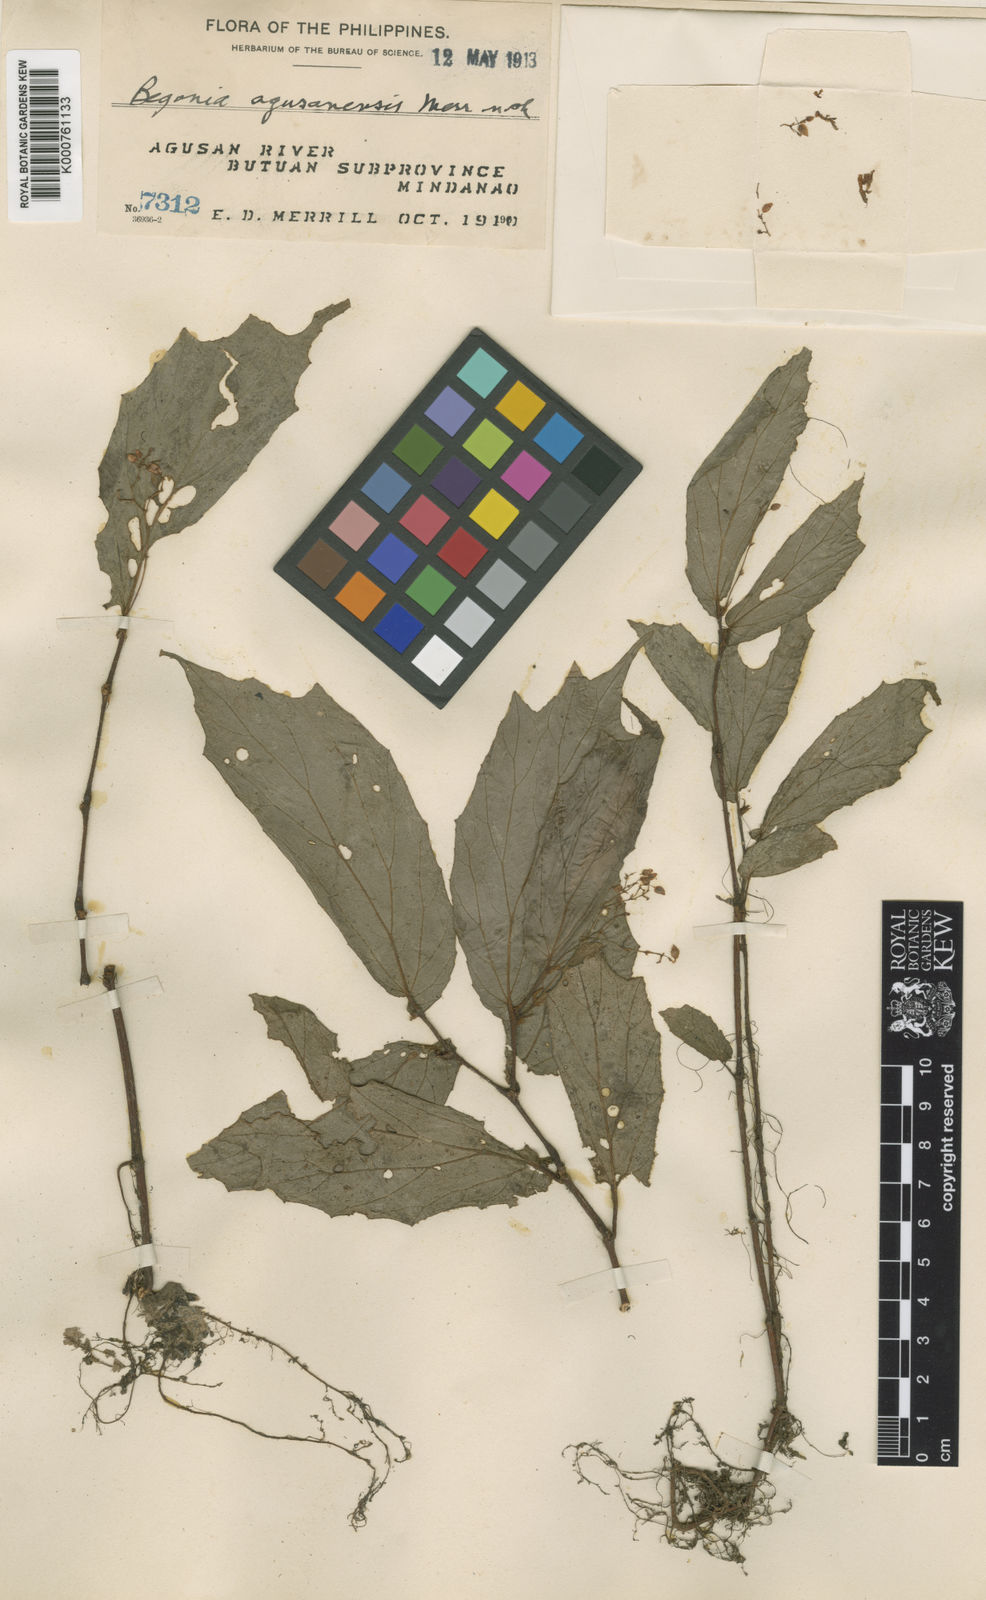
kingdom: Plantae
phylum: Tracheophyta
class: Magnoliopsida
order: Cucurbitales
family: Begoniaceae
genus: Begonia
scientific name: Begonia agusanensis
